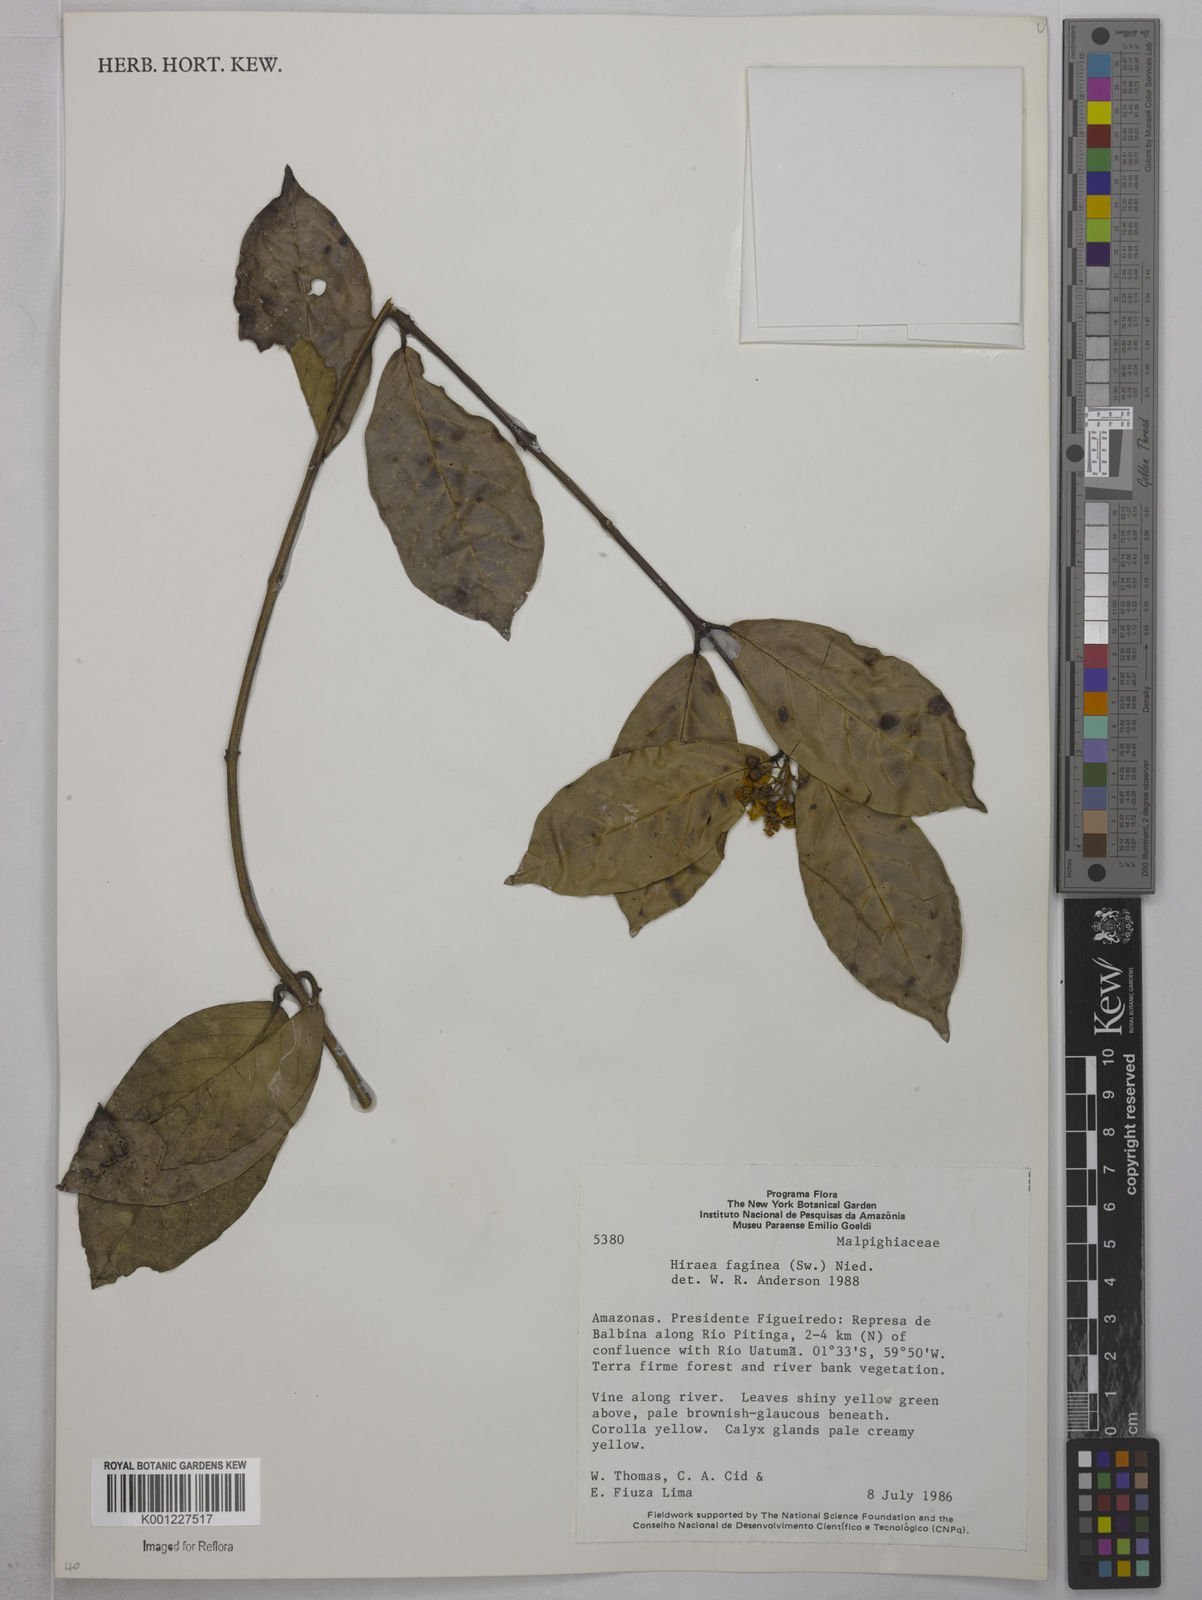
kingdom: Plantae
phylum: Tracheophyta
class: Magnoliopsida
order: Malpighiales
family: Malpighiaceae
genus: Hiraea
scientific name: Hiraea faginea
